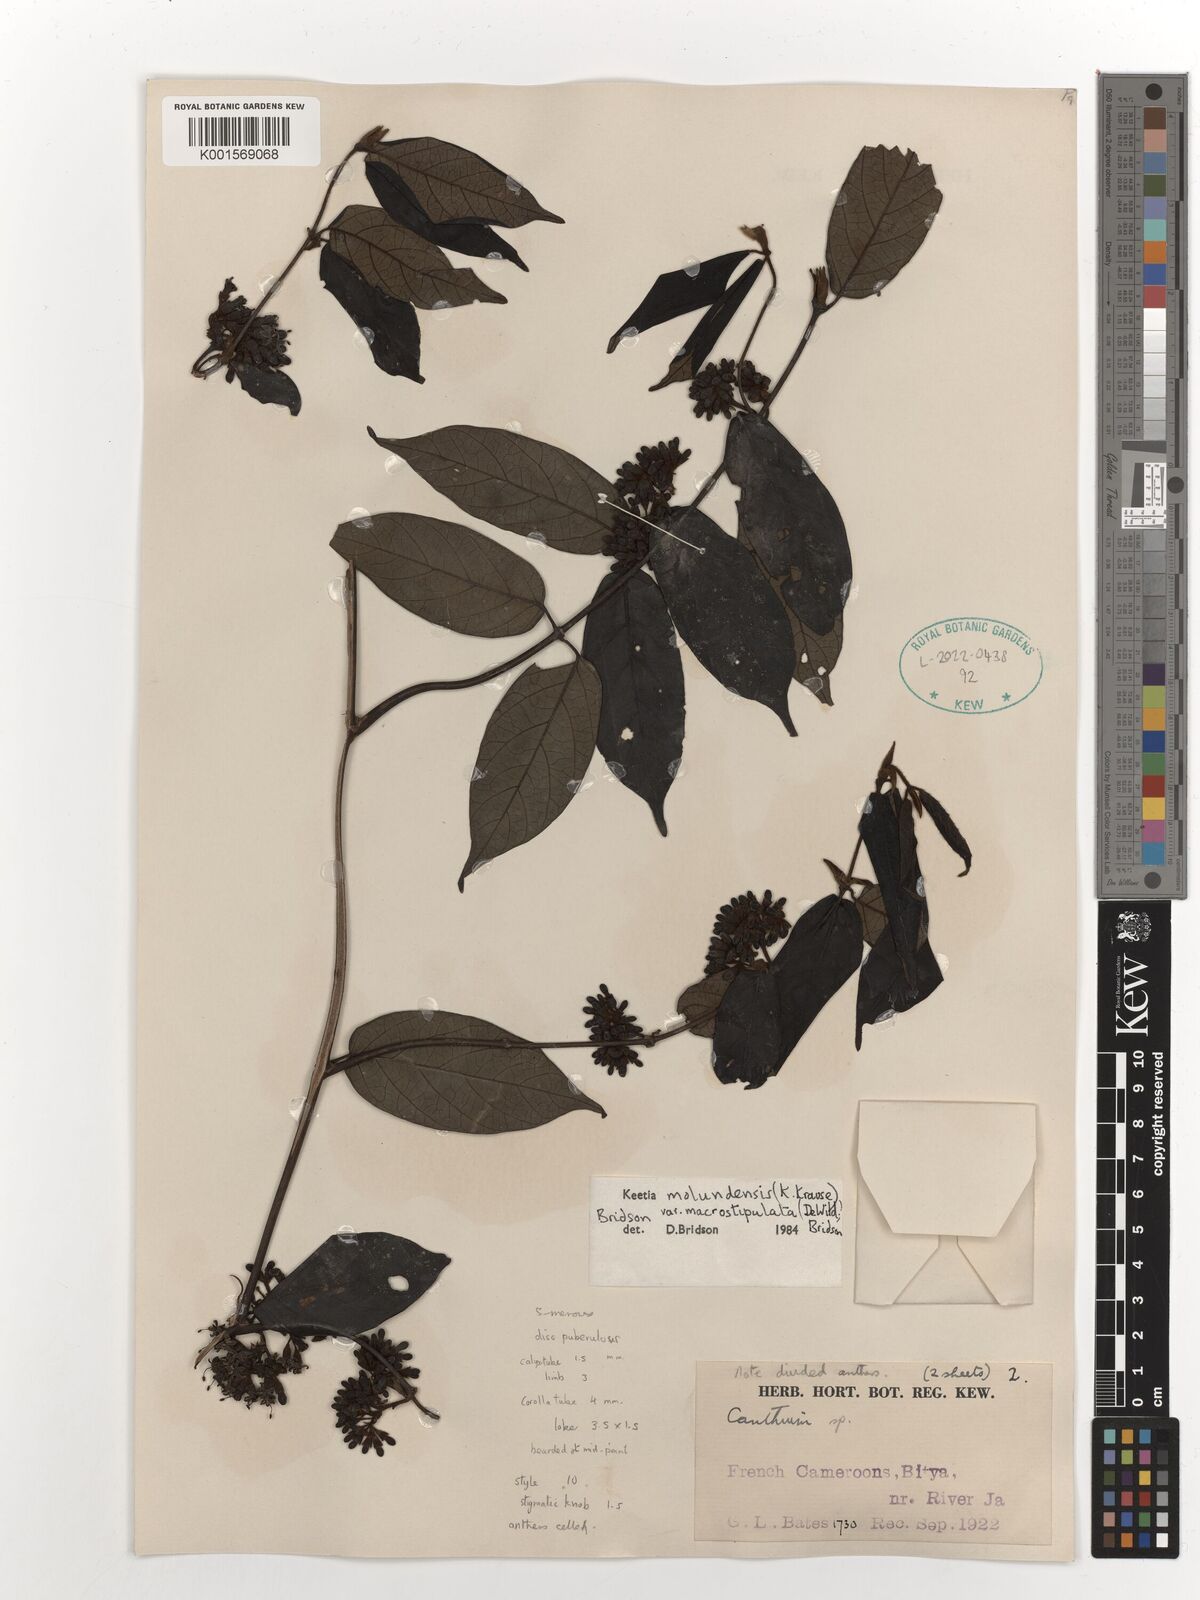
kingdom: Plantae
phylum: Tracheophyta
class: Magnoliopsida
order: Gentianales
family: Rubiaceae
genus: Keetia
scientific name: Keetia molundensis
